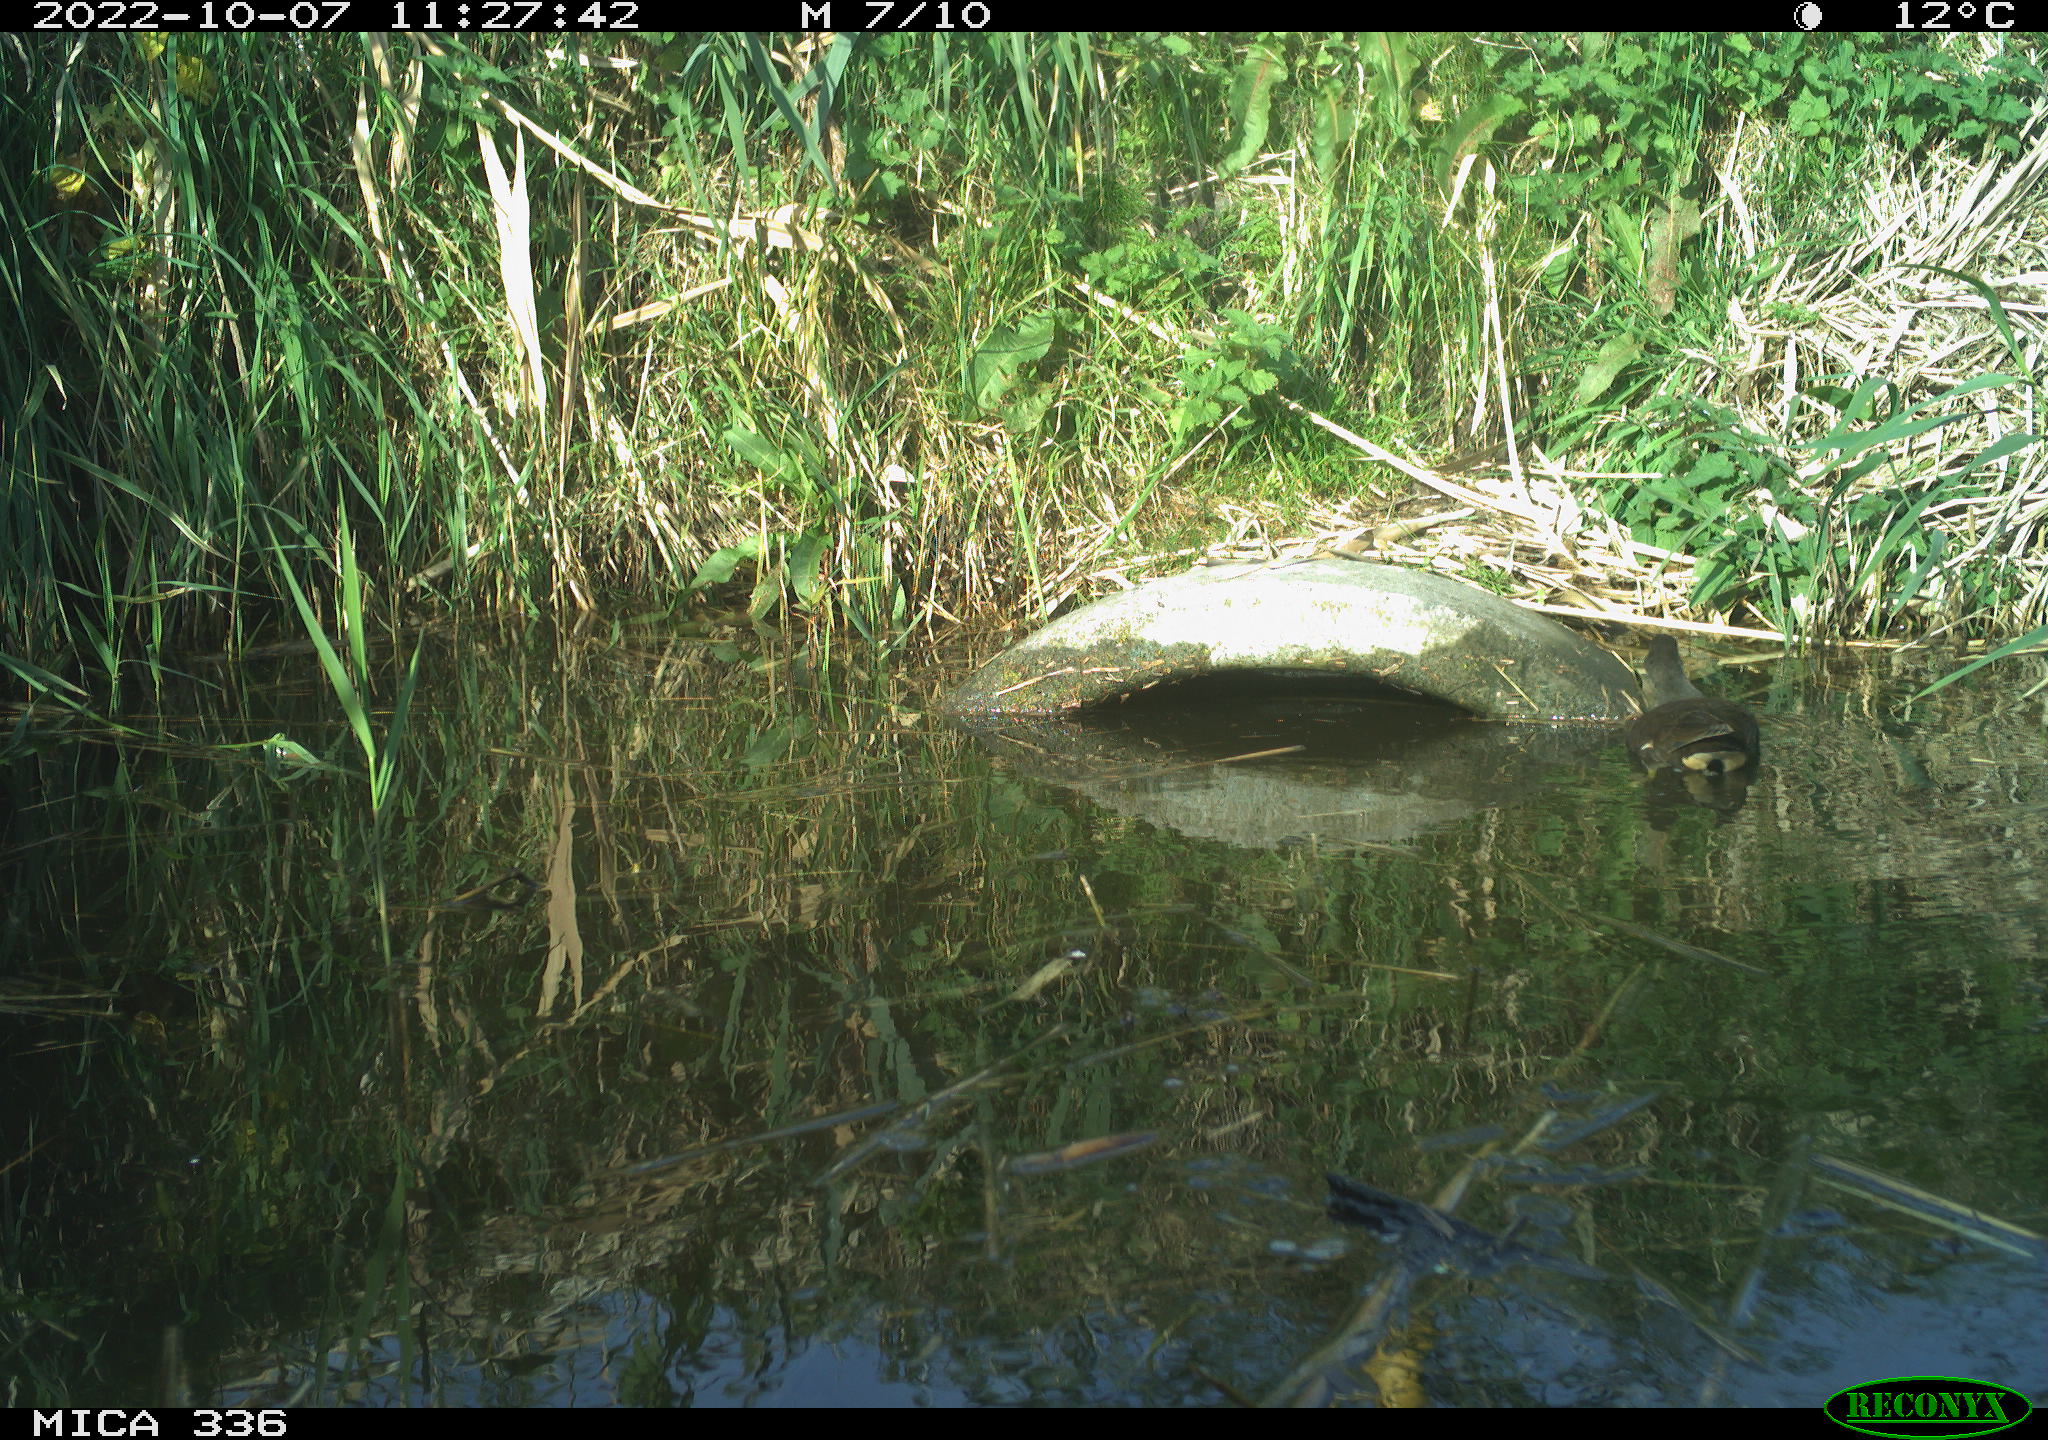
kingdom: Animalia
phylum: Chordata
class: Aves
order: Gruiformes
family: Rallidae
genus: Gallinula
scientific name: Gallinula chloropus
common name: Common moorhen
